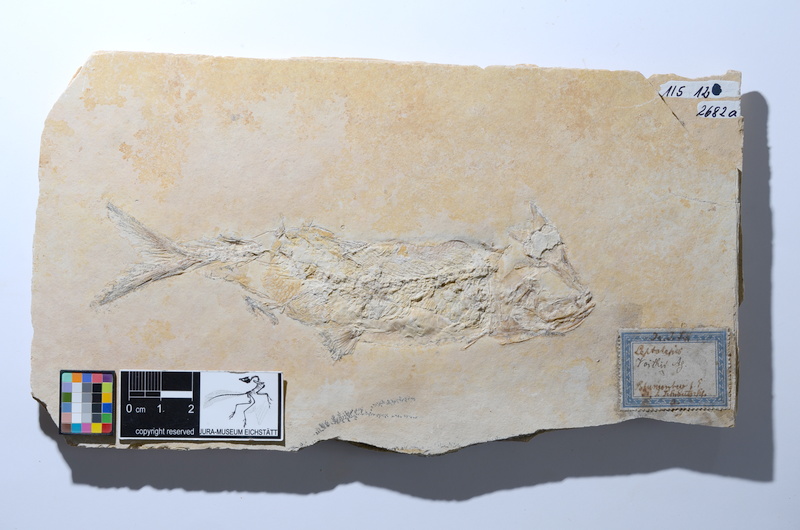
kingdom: Animalia
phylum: Chordata
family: Ascalaboidae
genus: Tharsis
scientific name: Tharsis dubius
